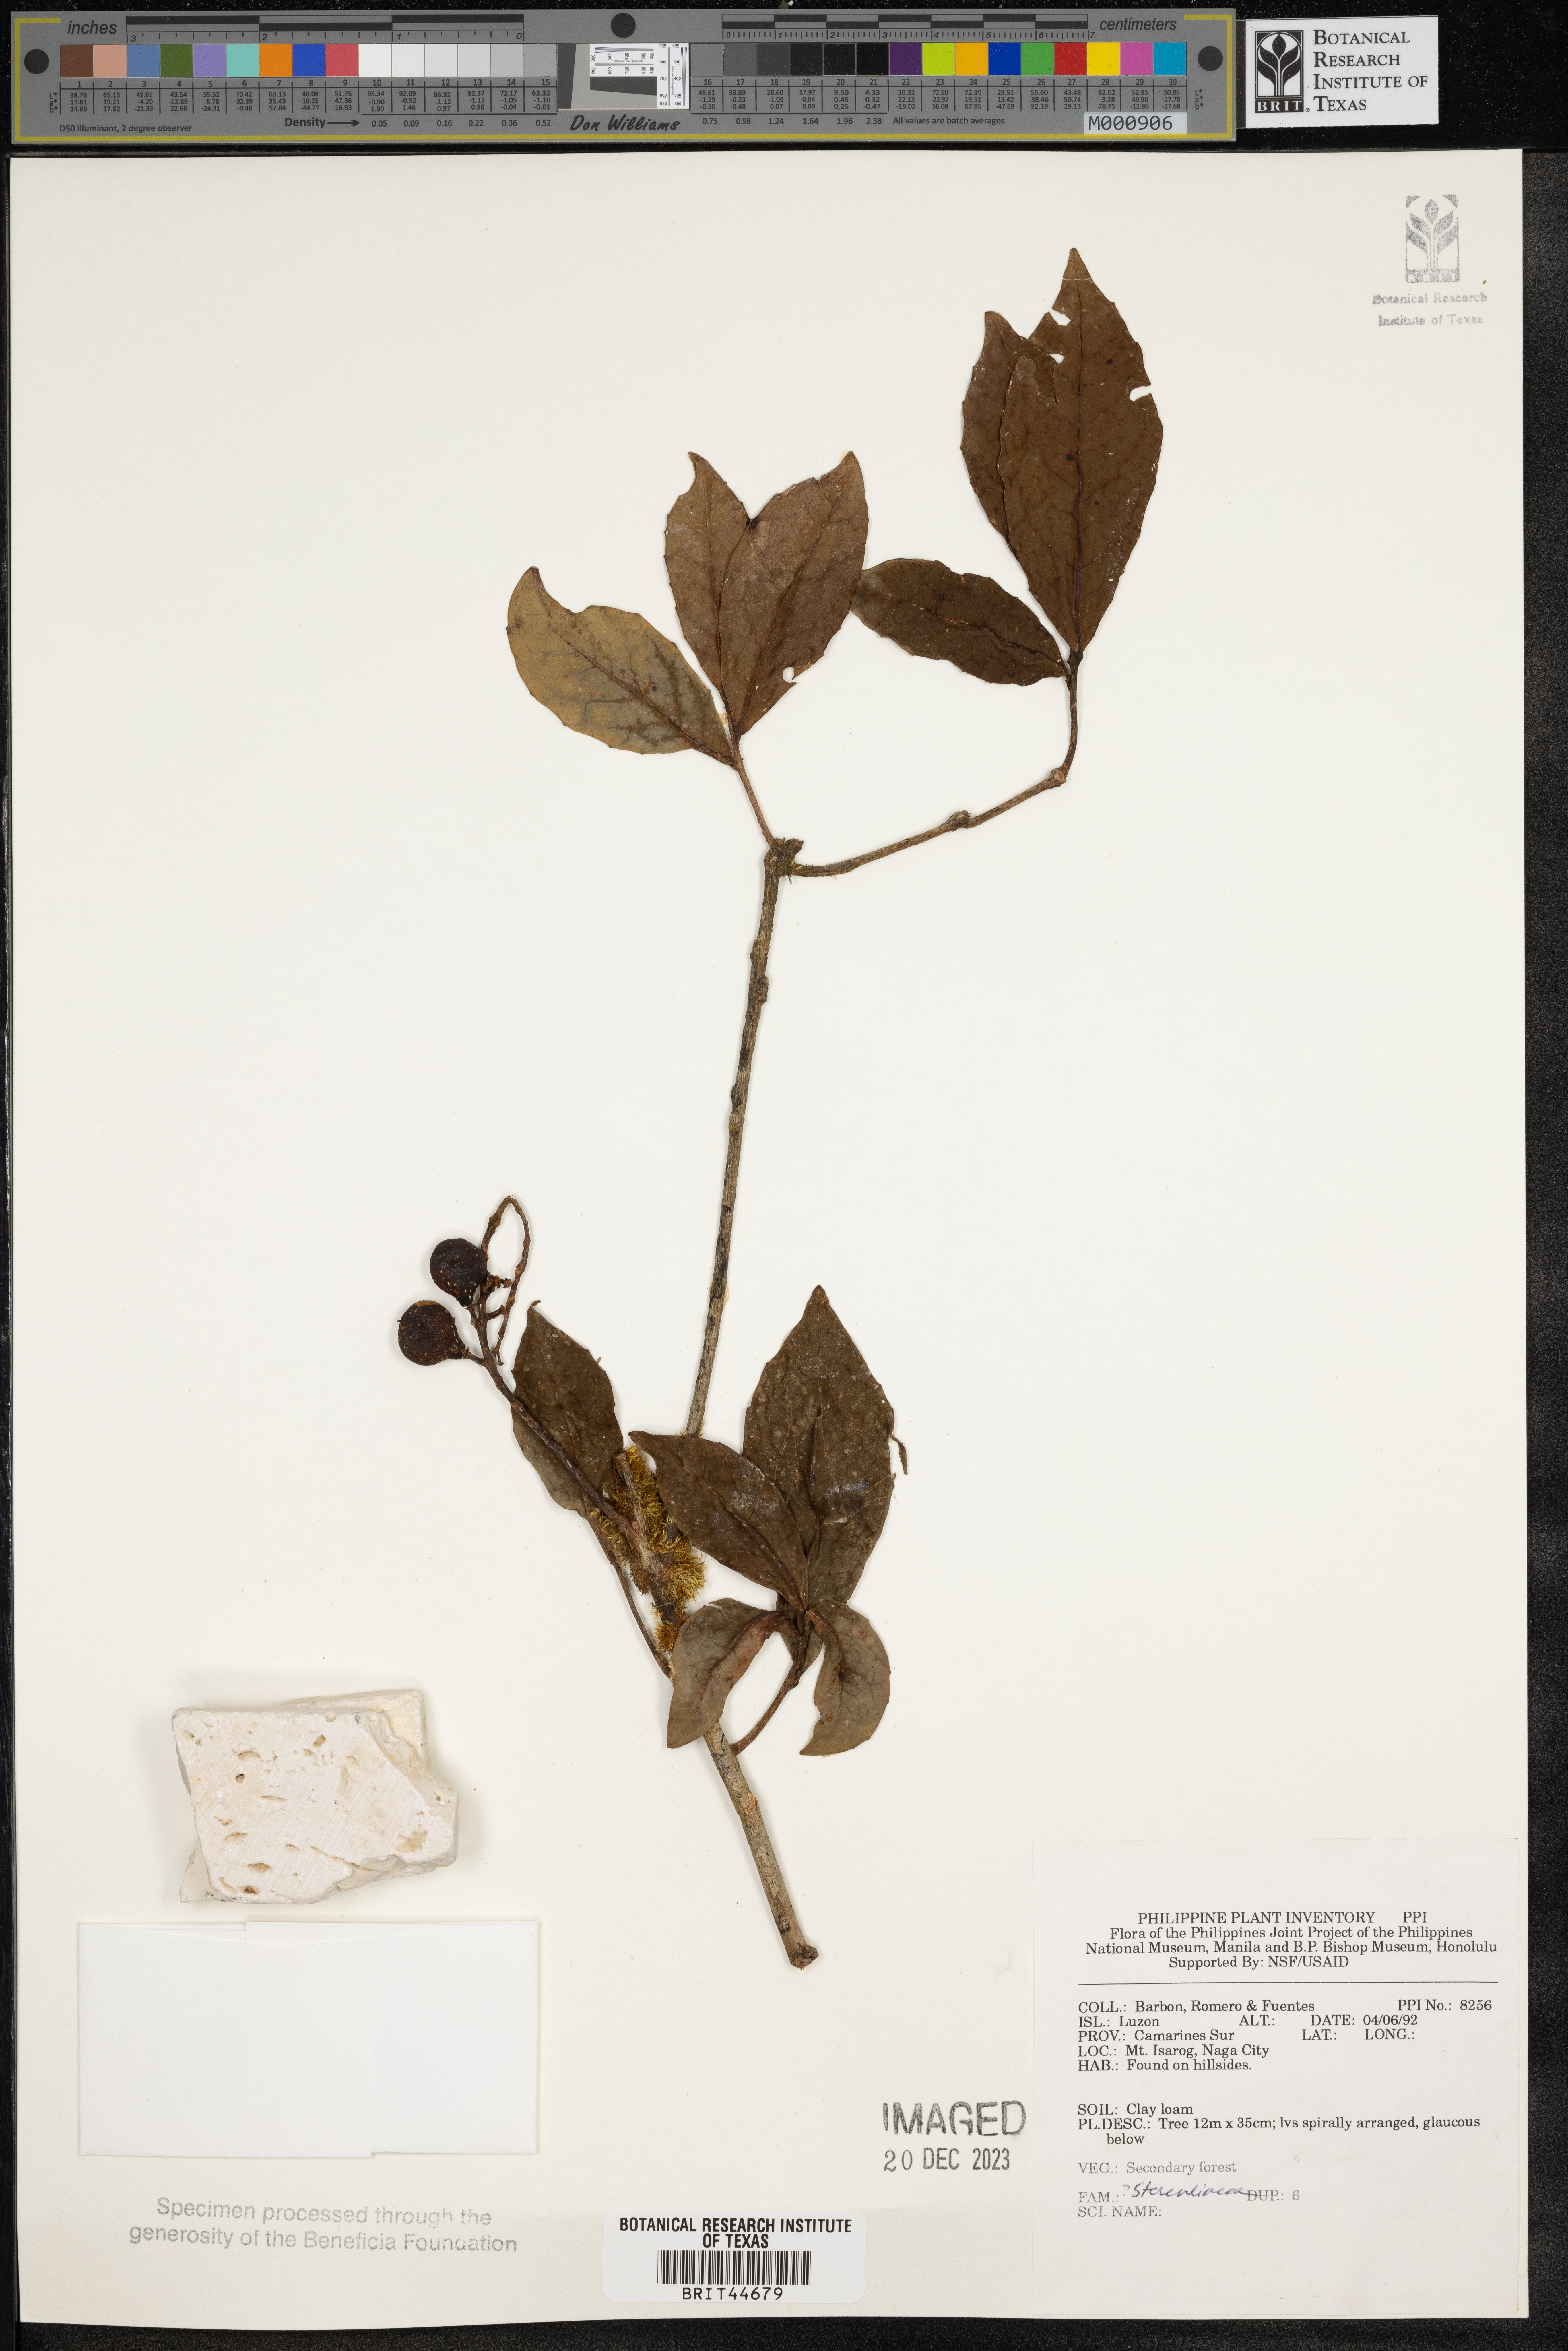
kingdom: Plantae
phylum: Tracheophyta
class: Magnoliopsida
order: Malvales
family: Sterculiaceae
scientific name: Sterculiaceae
